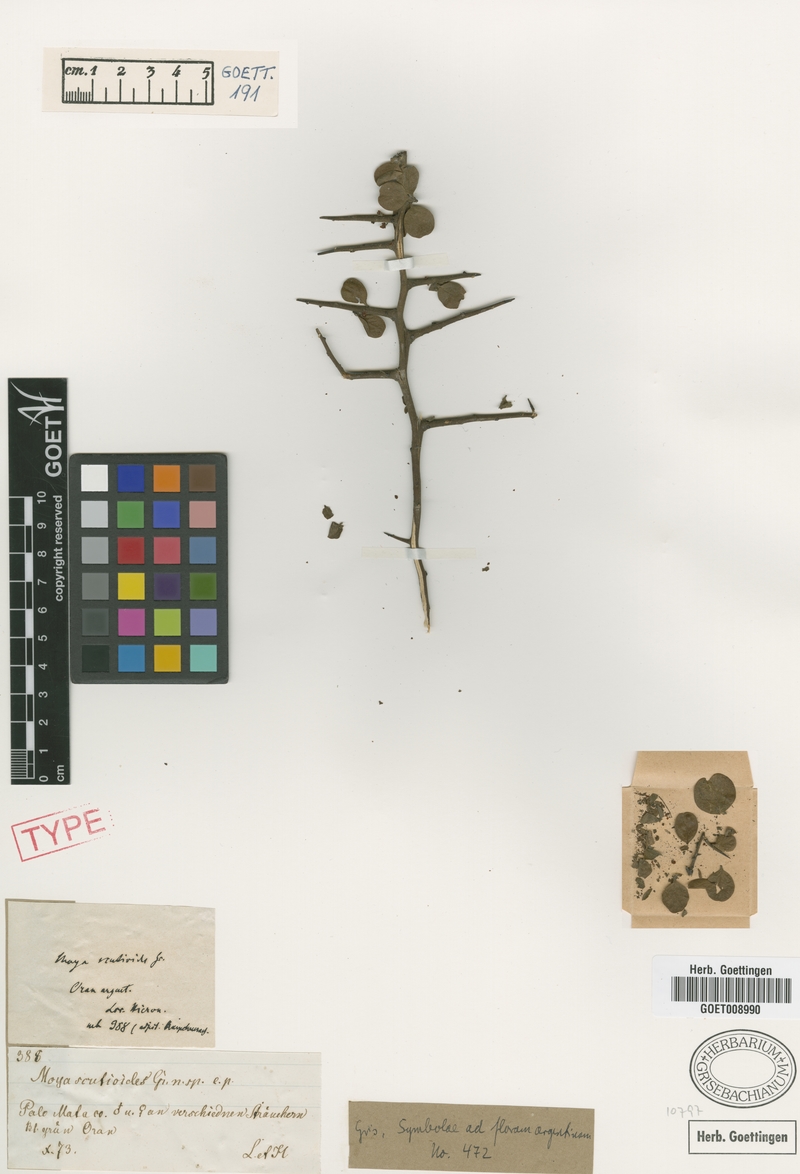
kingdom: Plantae
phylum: Tracheophyta
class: Magnoliopsida
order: Celastrales
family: Celastraceae
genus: Monteverdia
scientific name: Monteverdia spinosa
